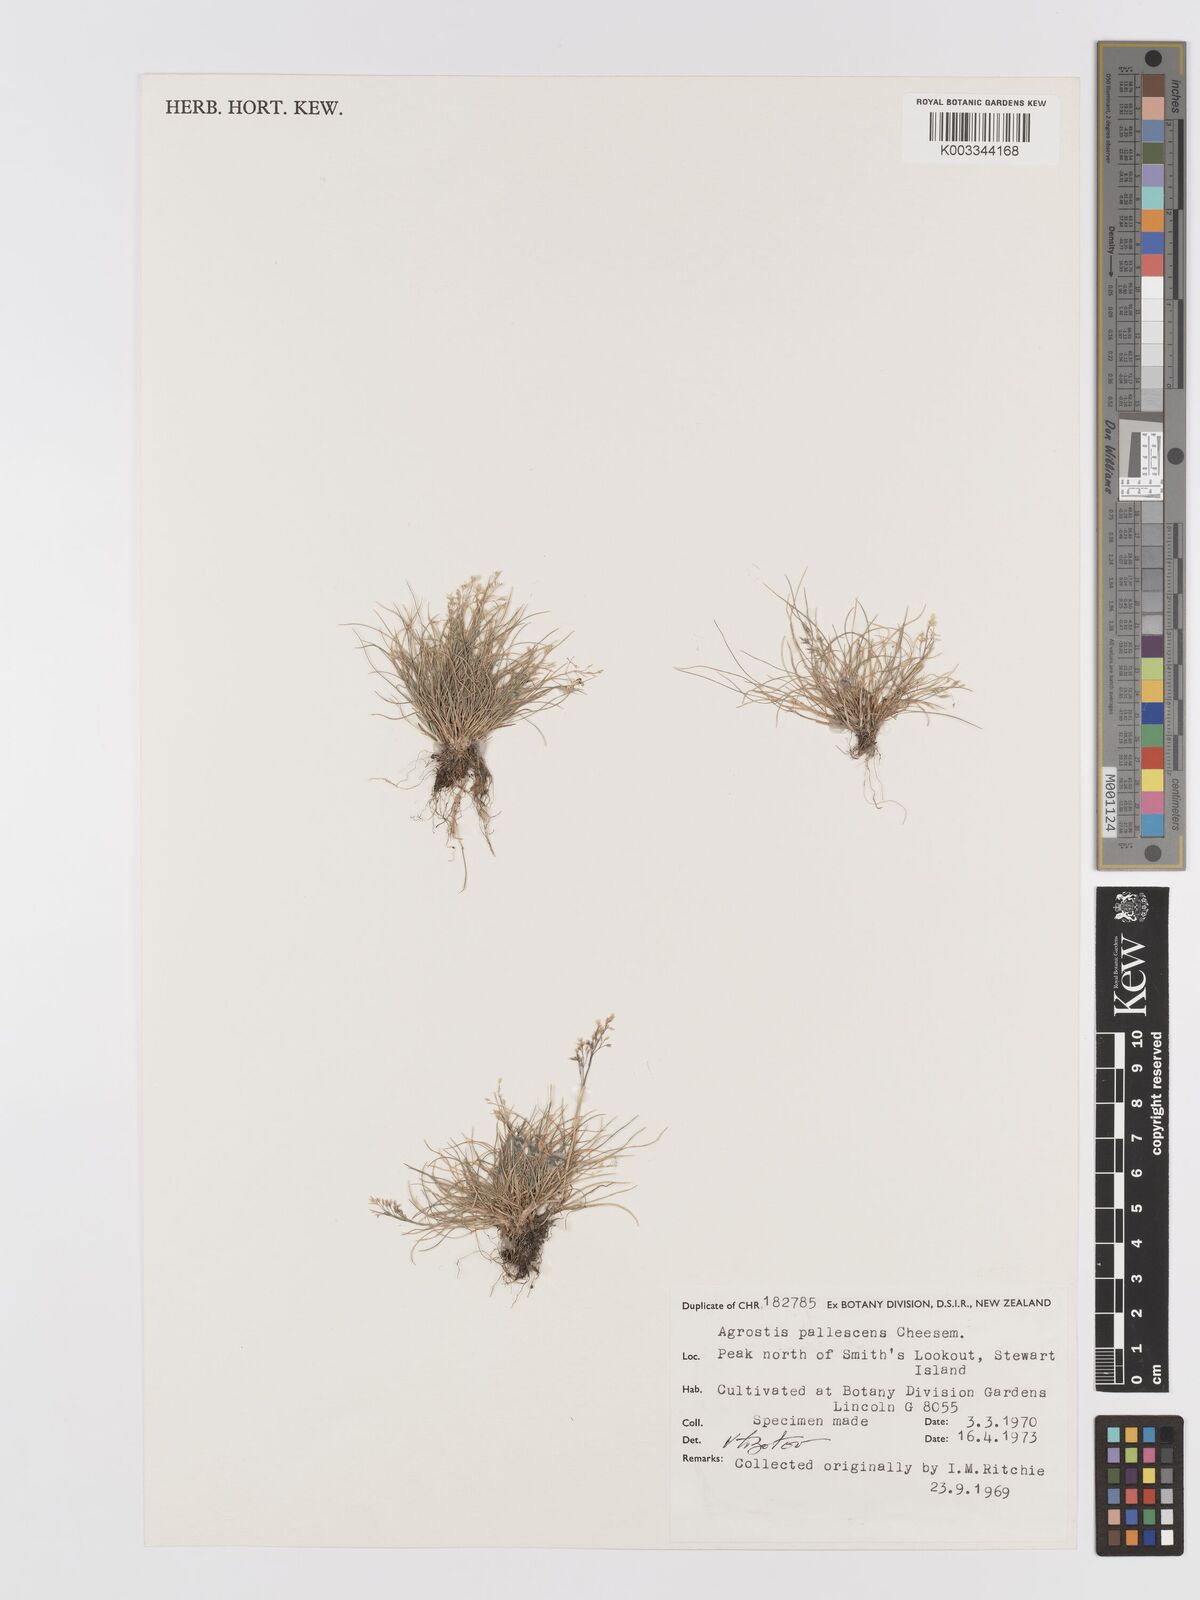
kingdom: Plantae
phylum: Tracheophyta
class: Liliopsida
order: Poales
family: Poaceae
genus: Agrostis
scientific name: Agrostis pallescens
